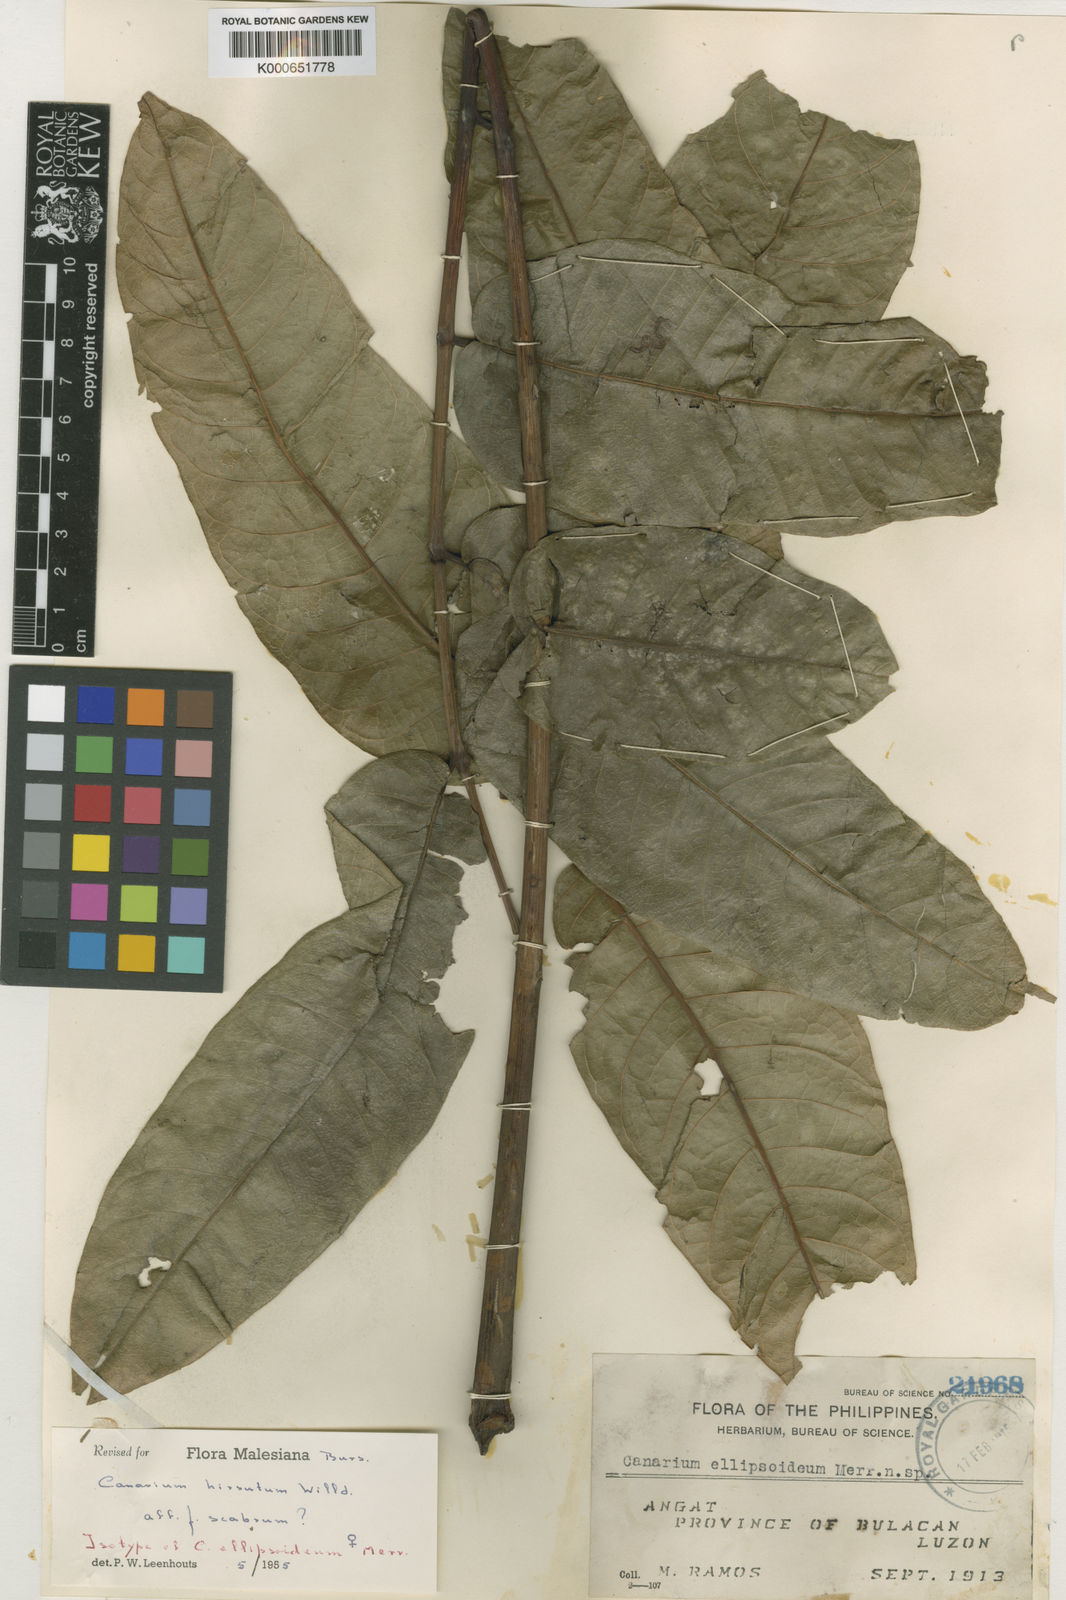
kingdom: Plantae
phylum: Tracheophyta
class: Magnoliopsida
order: Sapindales
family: Burseraceae
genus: Canarium
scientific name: Canarium hirsutum
